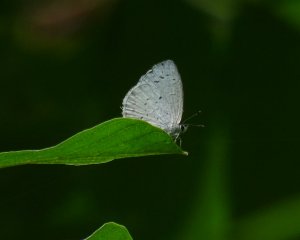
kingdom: Animalia
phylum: Arthropoda
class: Insecta
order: Lepidoptera
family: Lycaenidae
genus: Celastrina
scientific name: Celastrina
